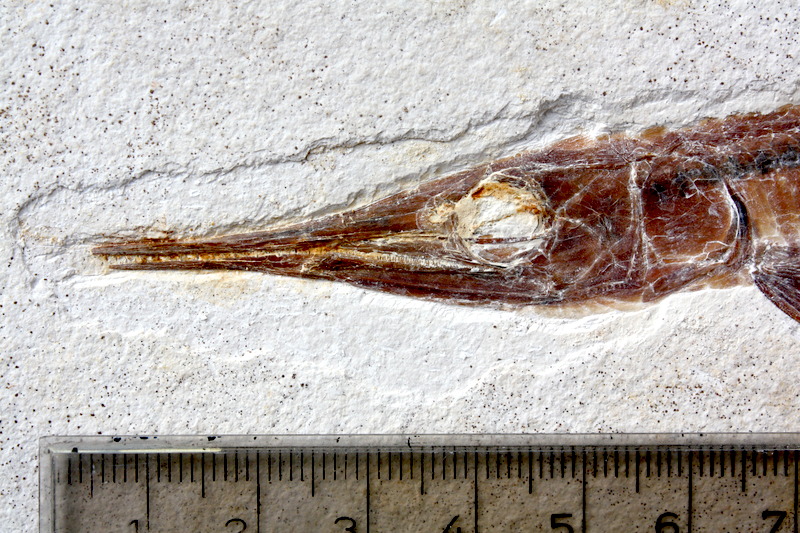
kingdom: Animalia
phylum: Chordata
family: Aspidorhynchidae
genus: Belonostomus
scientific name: Belonostomus kochii
